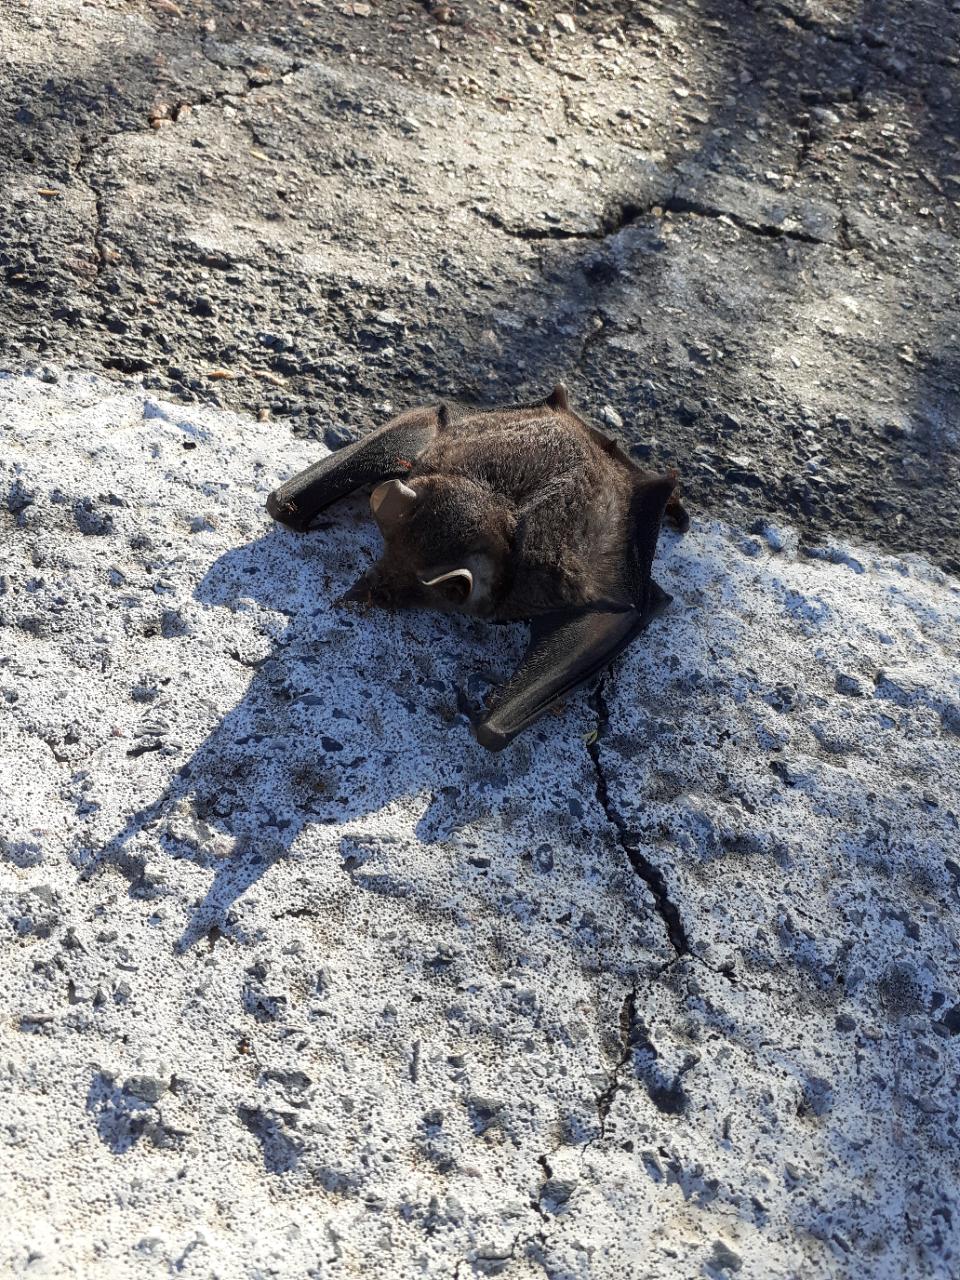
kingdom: Animalia
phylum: Chordata
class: Mammalia
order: Chiroptera
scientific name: Chiroptera
